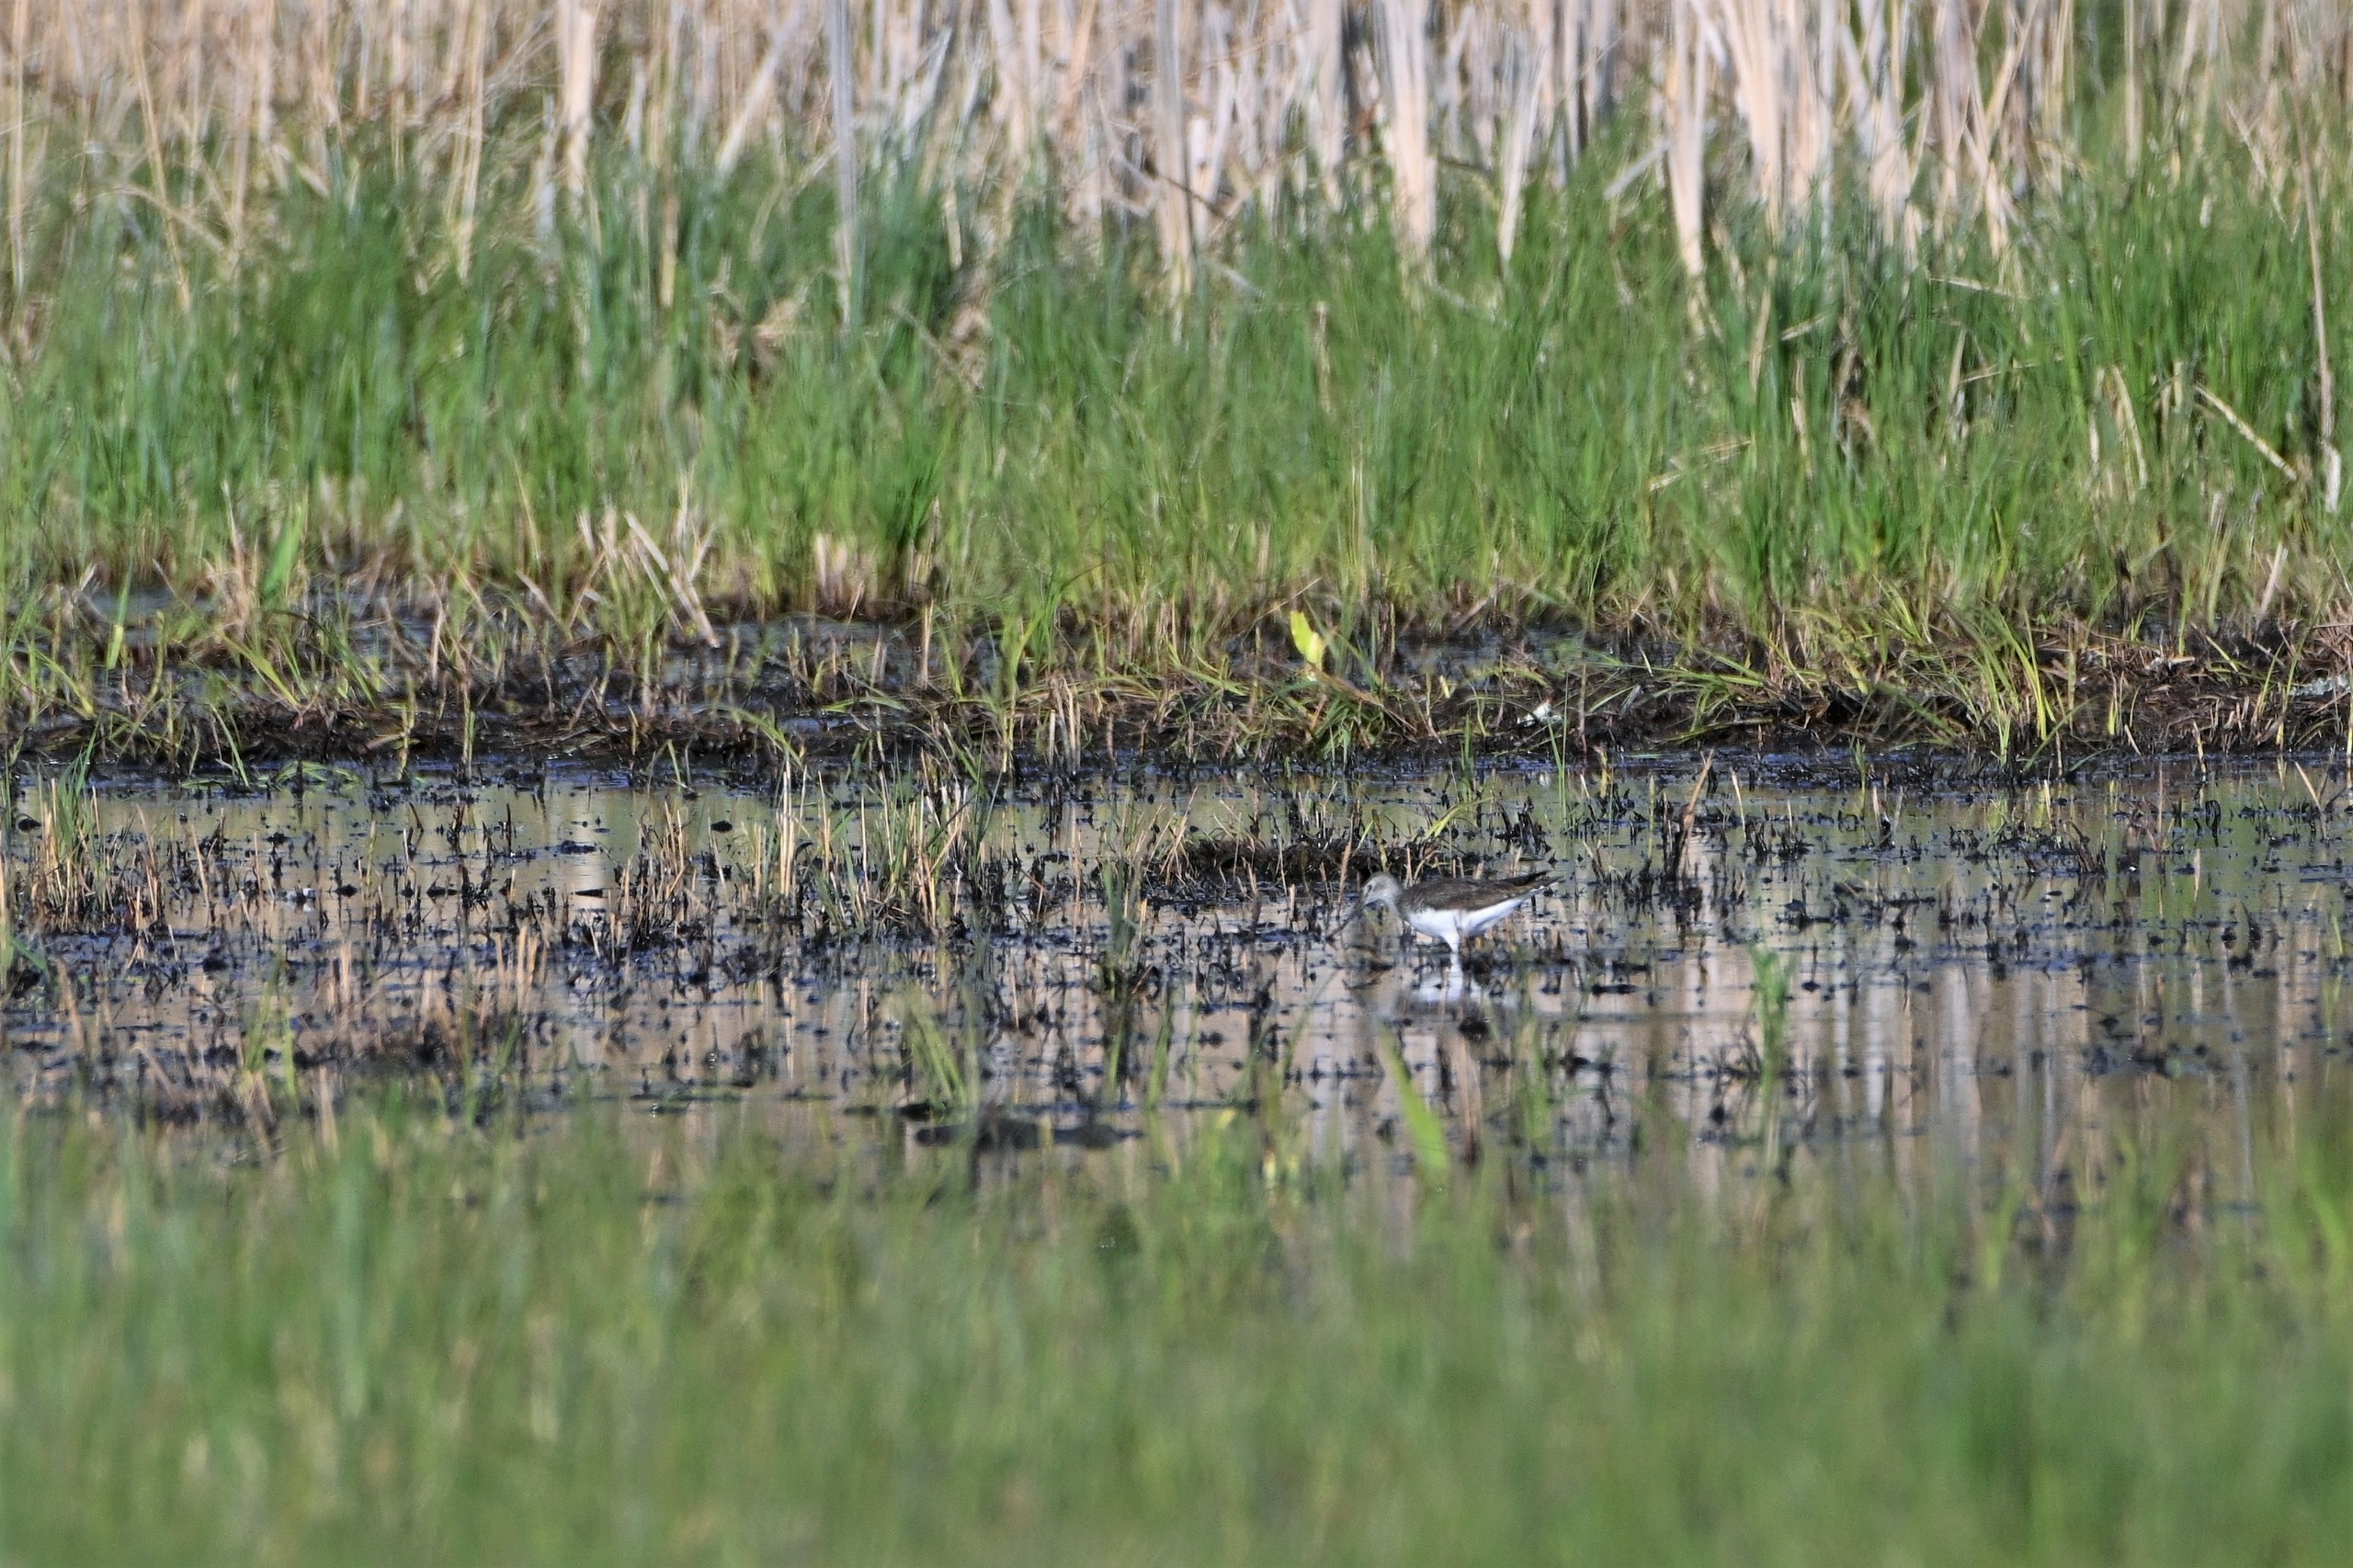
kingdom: Animalia
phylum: Chordata
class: Aves
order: Charadriiformes
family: Scolopacidae
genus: Tringa
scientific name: Tringa ochropus
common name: Svaleklire
